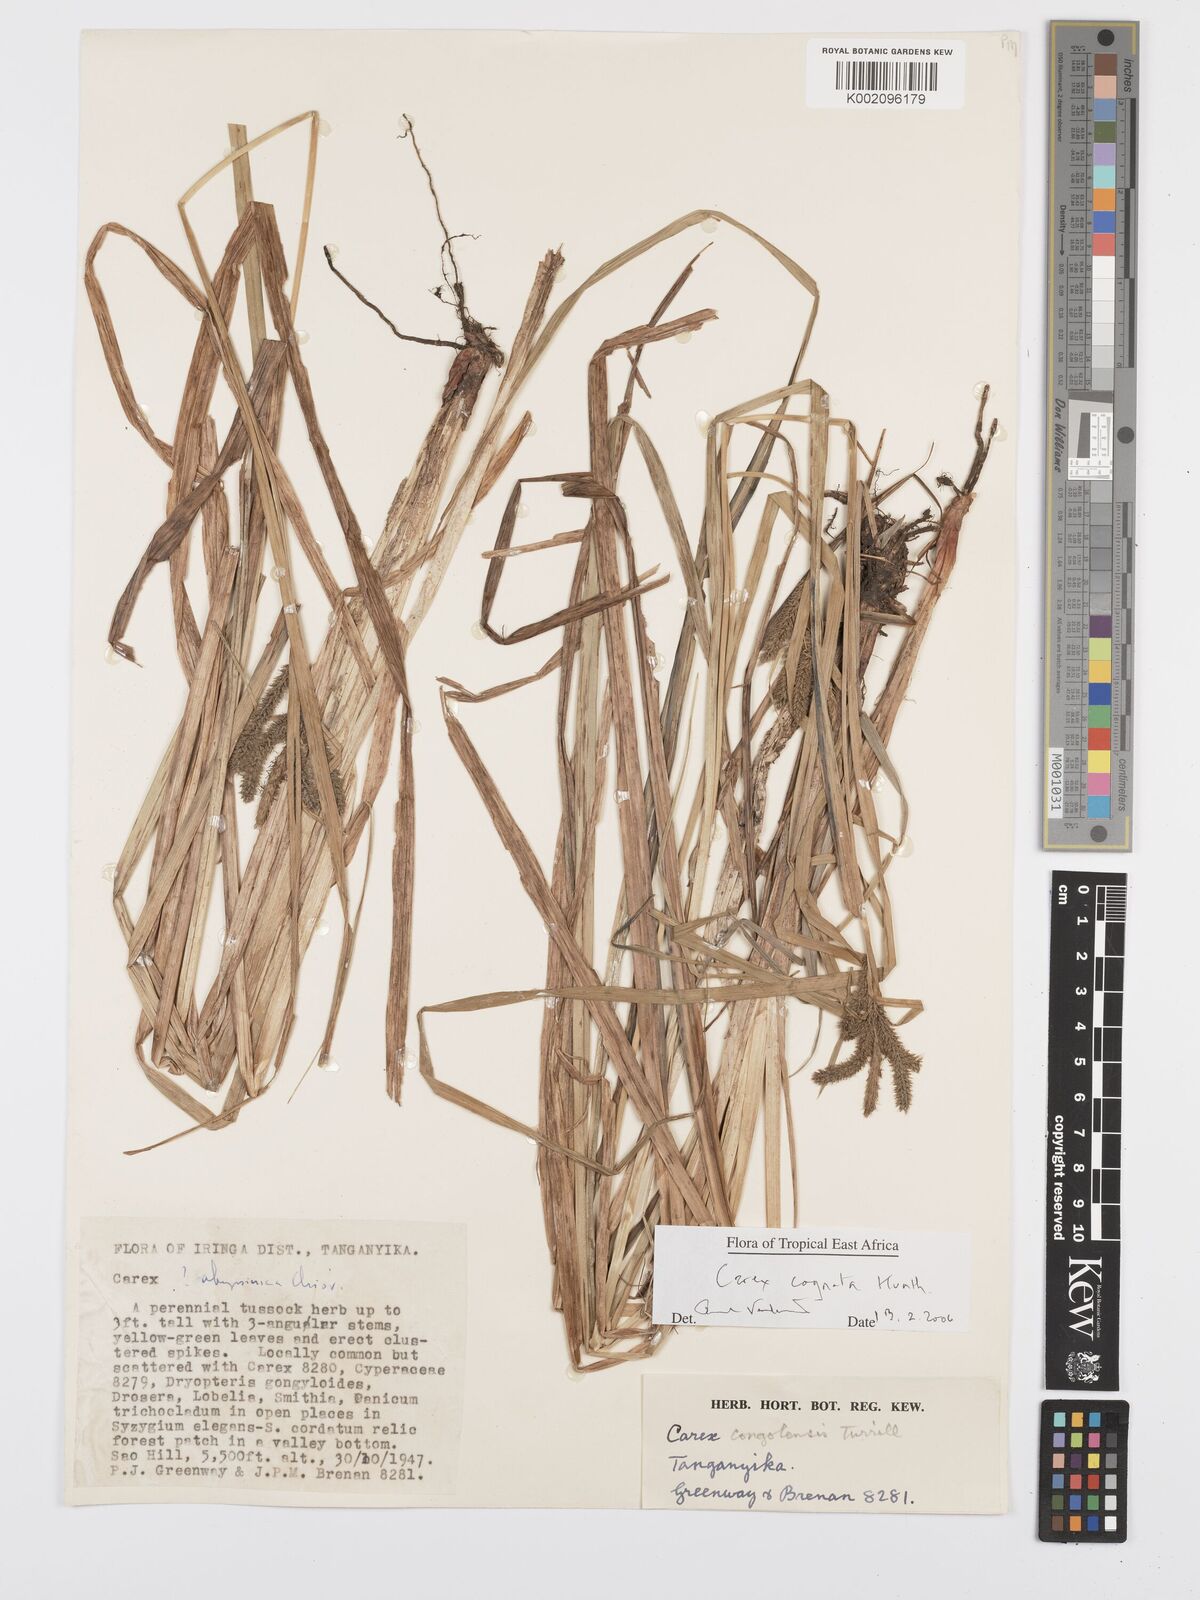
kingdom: Plantae
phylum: Tracheophyta
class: Liliopsida
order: Poales
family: Cyperaceae
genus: Carex
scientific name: Carex congolensis
